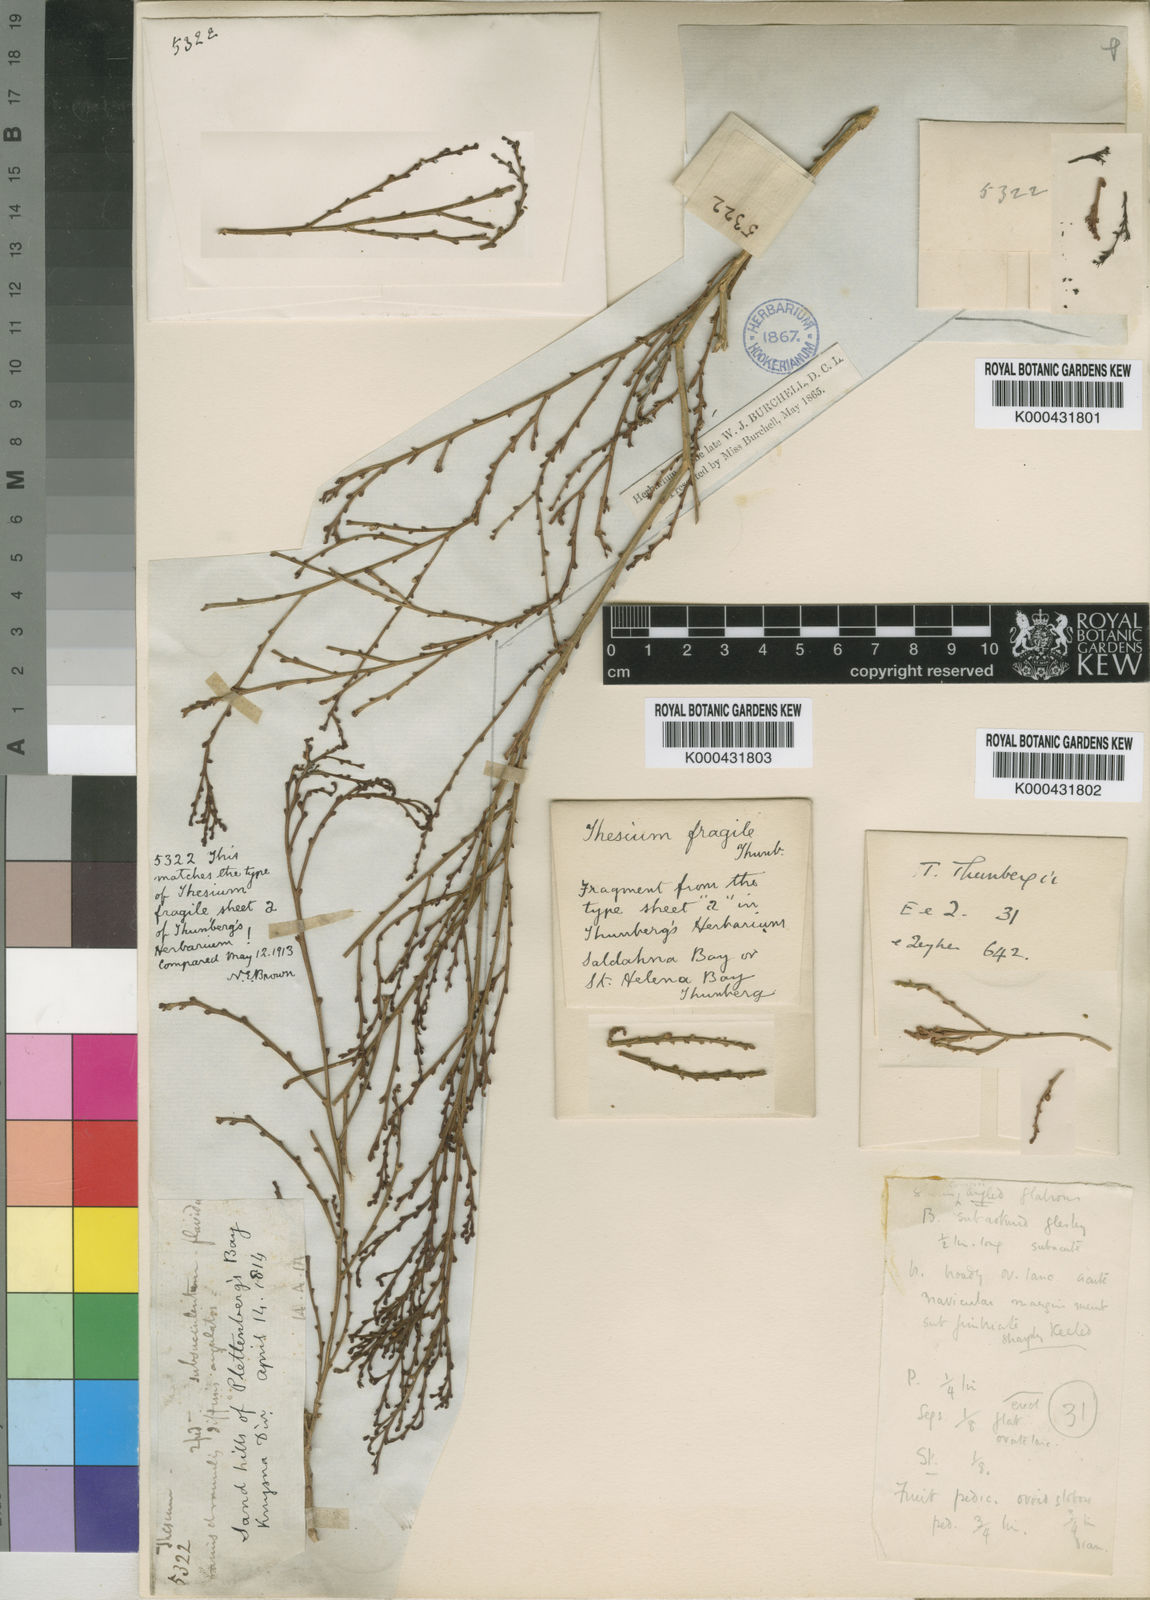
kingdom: Plantae
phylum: Tracheophyta
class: Magnoliopsida
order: Santalales
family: Thesiaceae
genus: Thesium
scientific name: Thesium confusum
